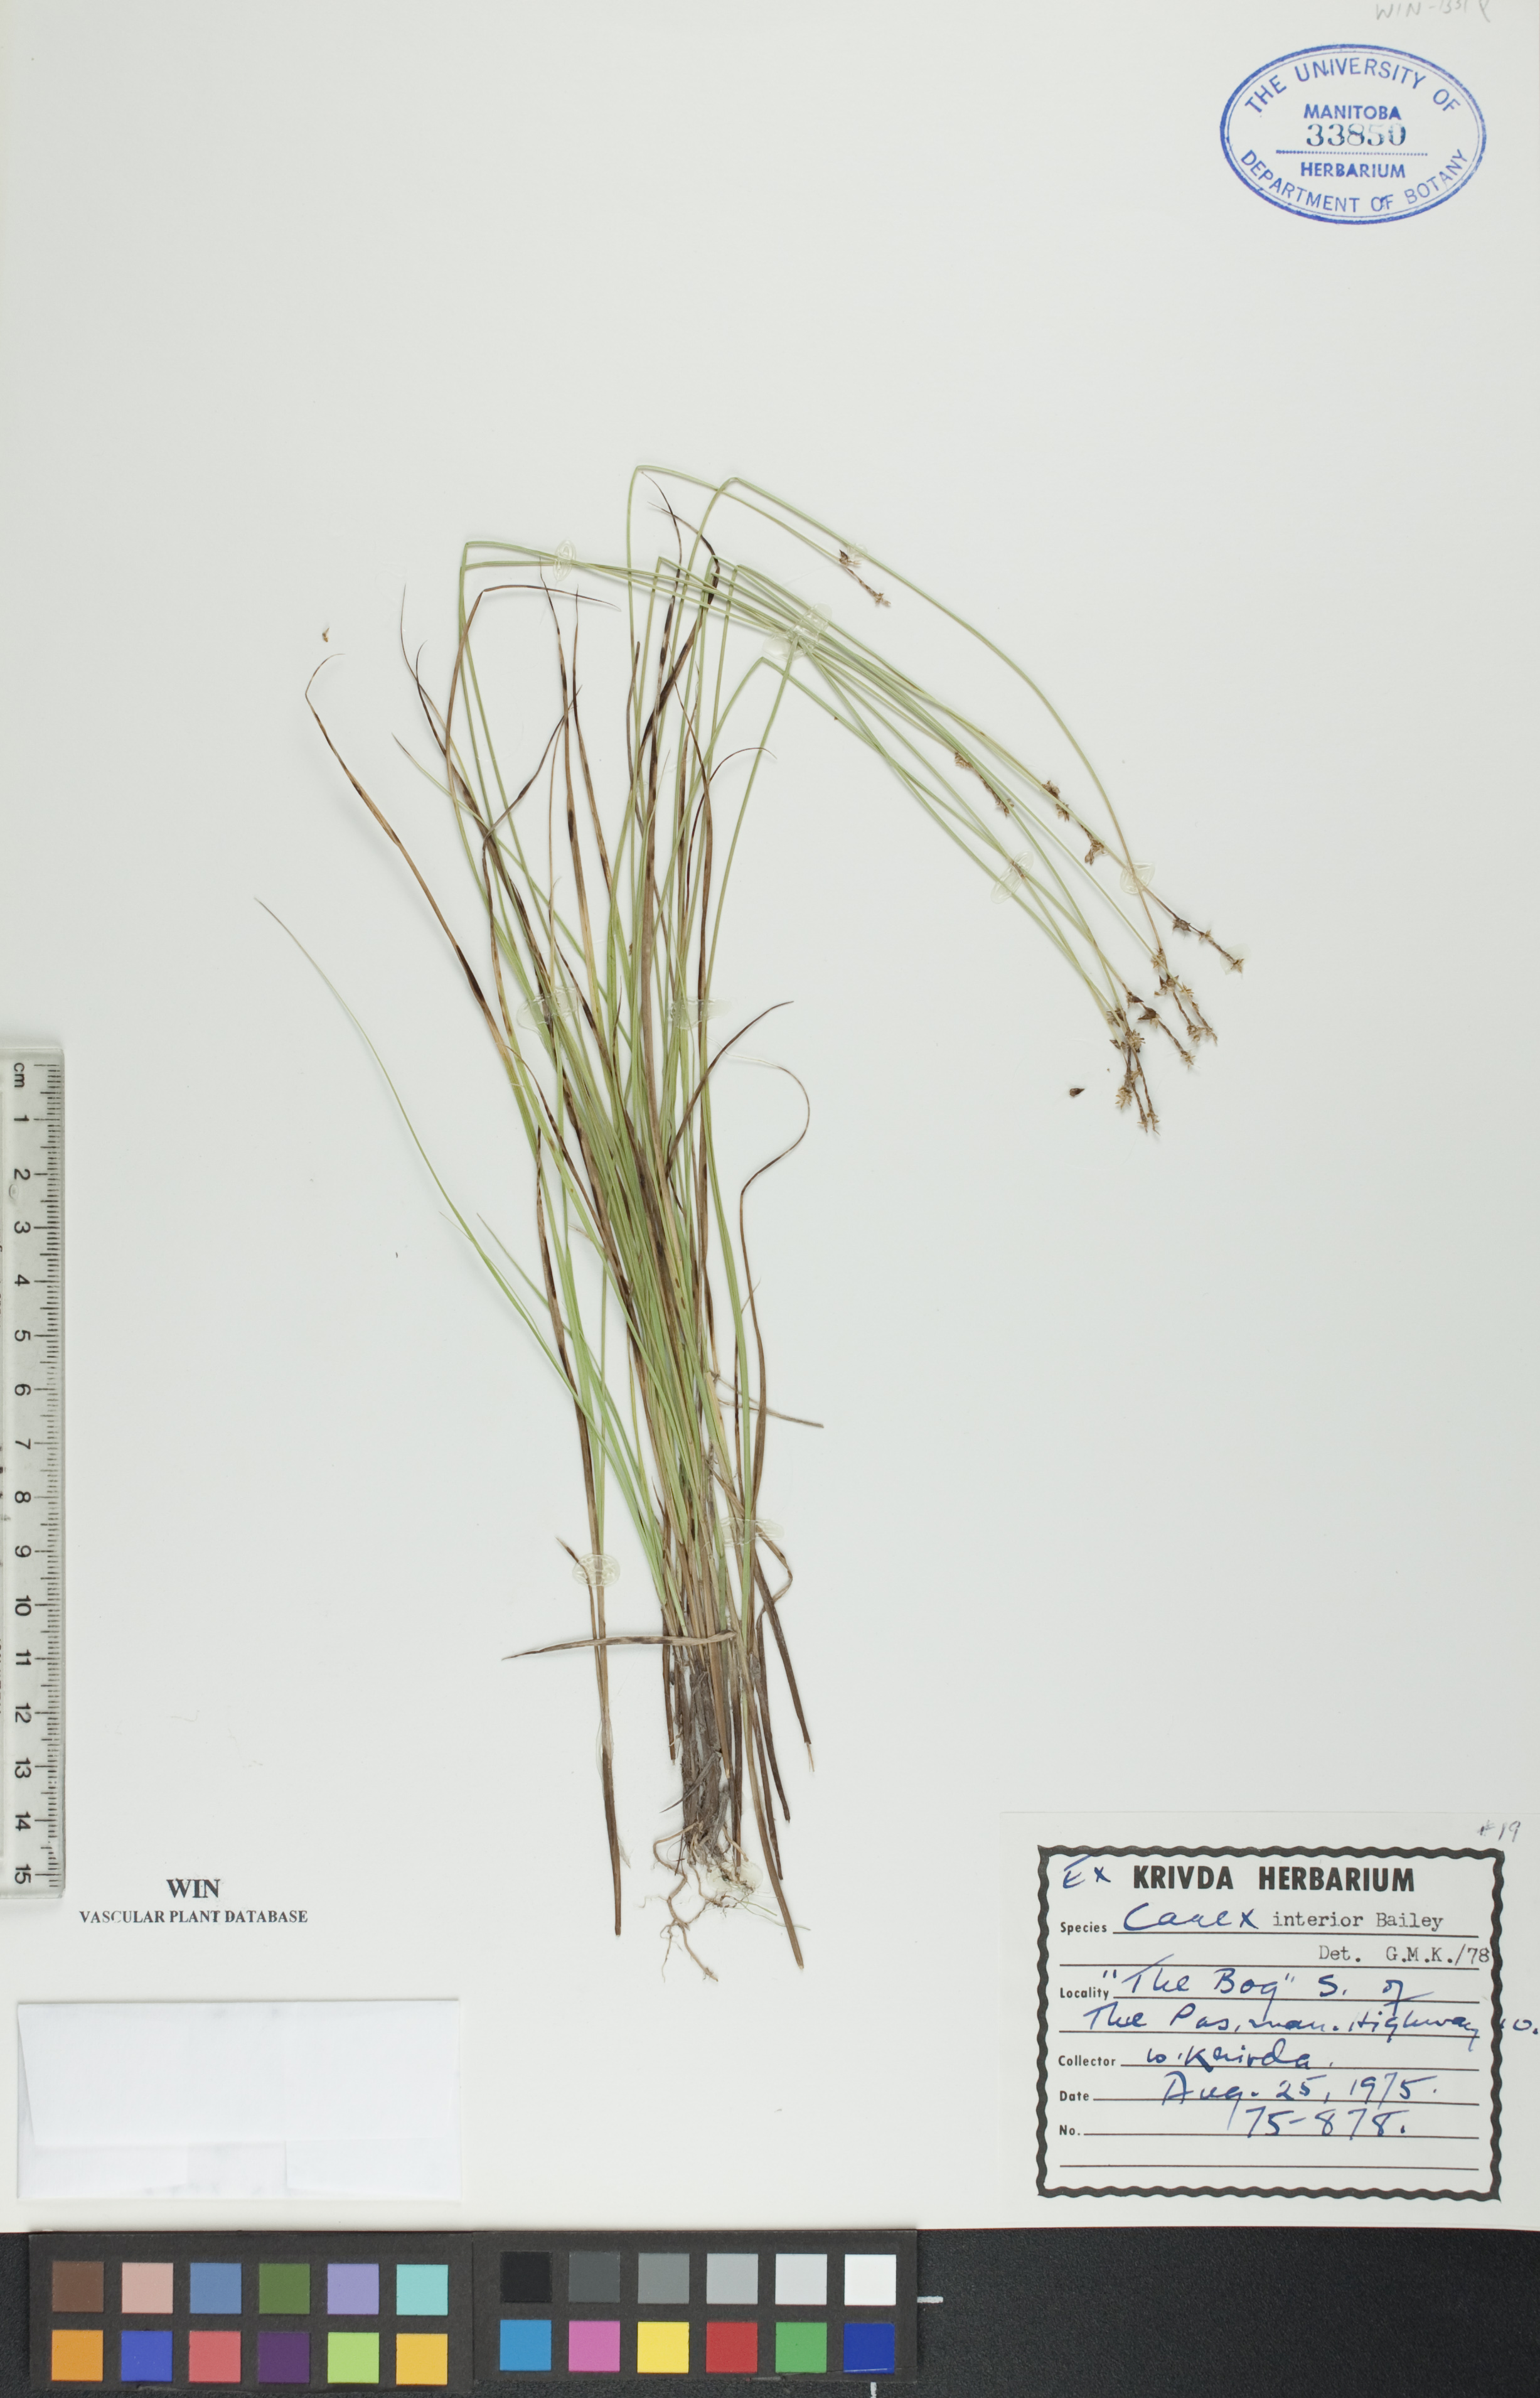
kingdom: Plantae
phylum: Tracheophyta
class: Liliopsida
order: Poales
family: Cyperaceae
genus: Carex
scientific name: Carex interior
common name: Inland sedge
